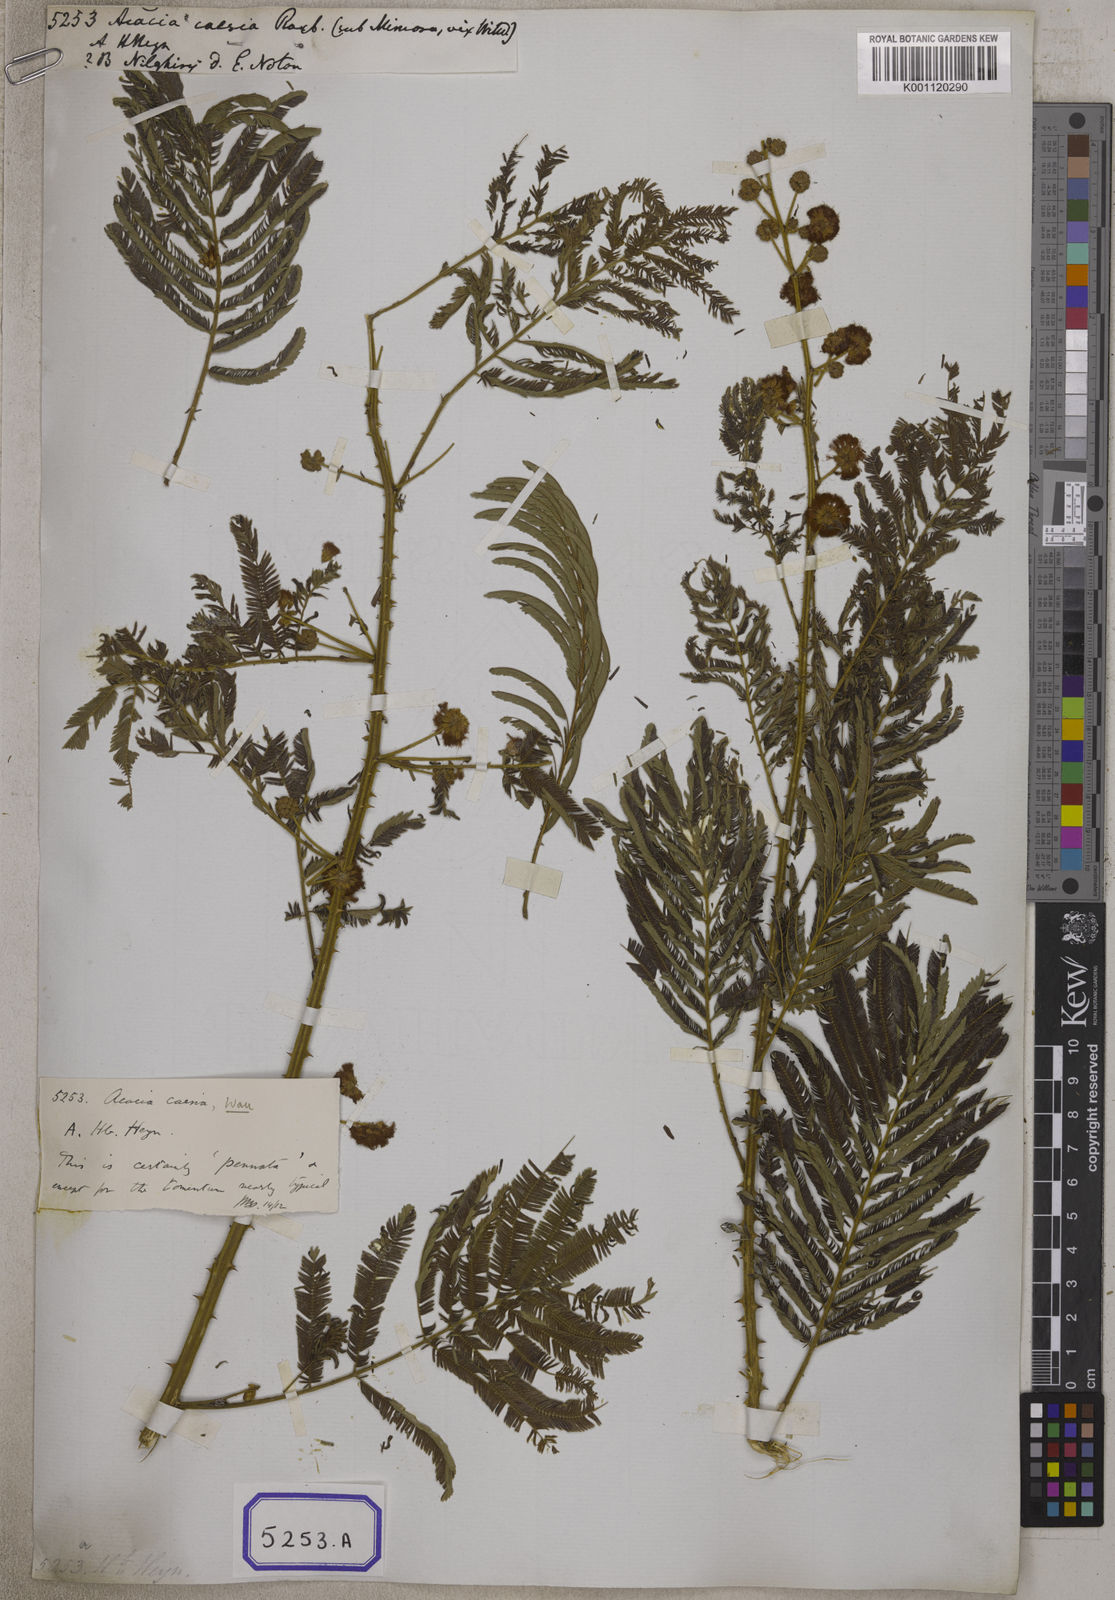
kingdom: Plantae
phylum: Tracheophyta
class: Magnoliopsida
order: Fabales
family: Fabaceae
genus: Acacia
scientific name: Acacia
